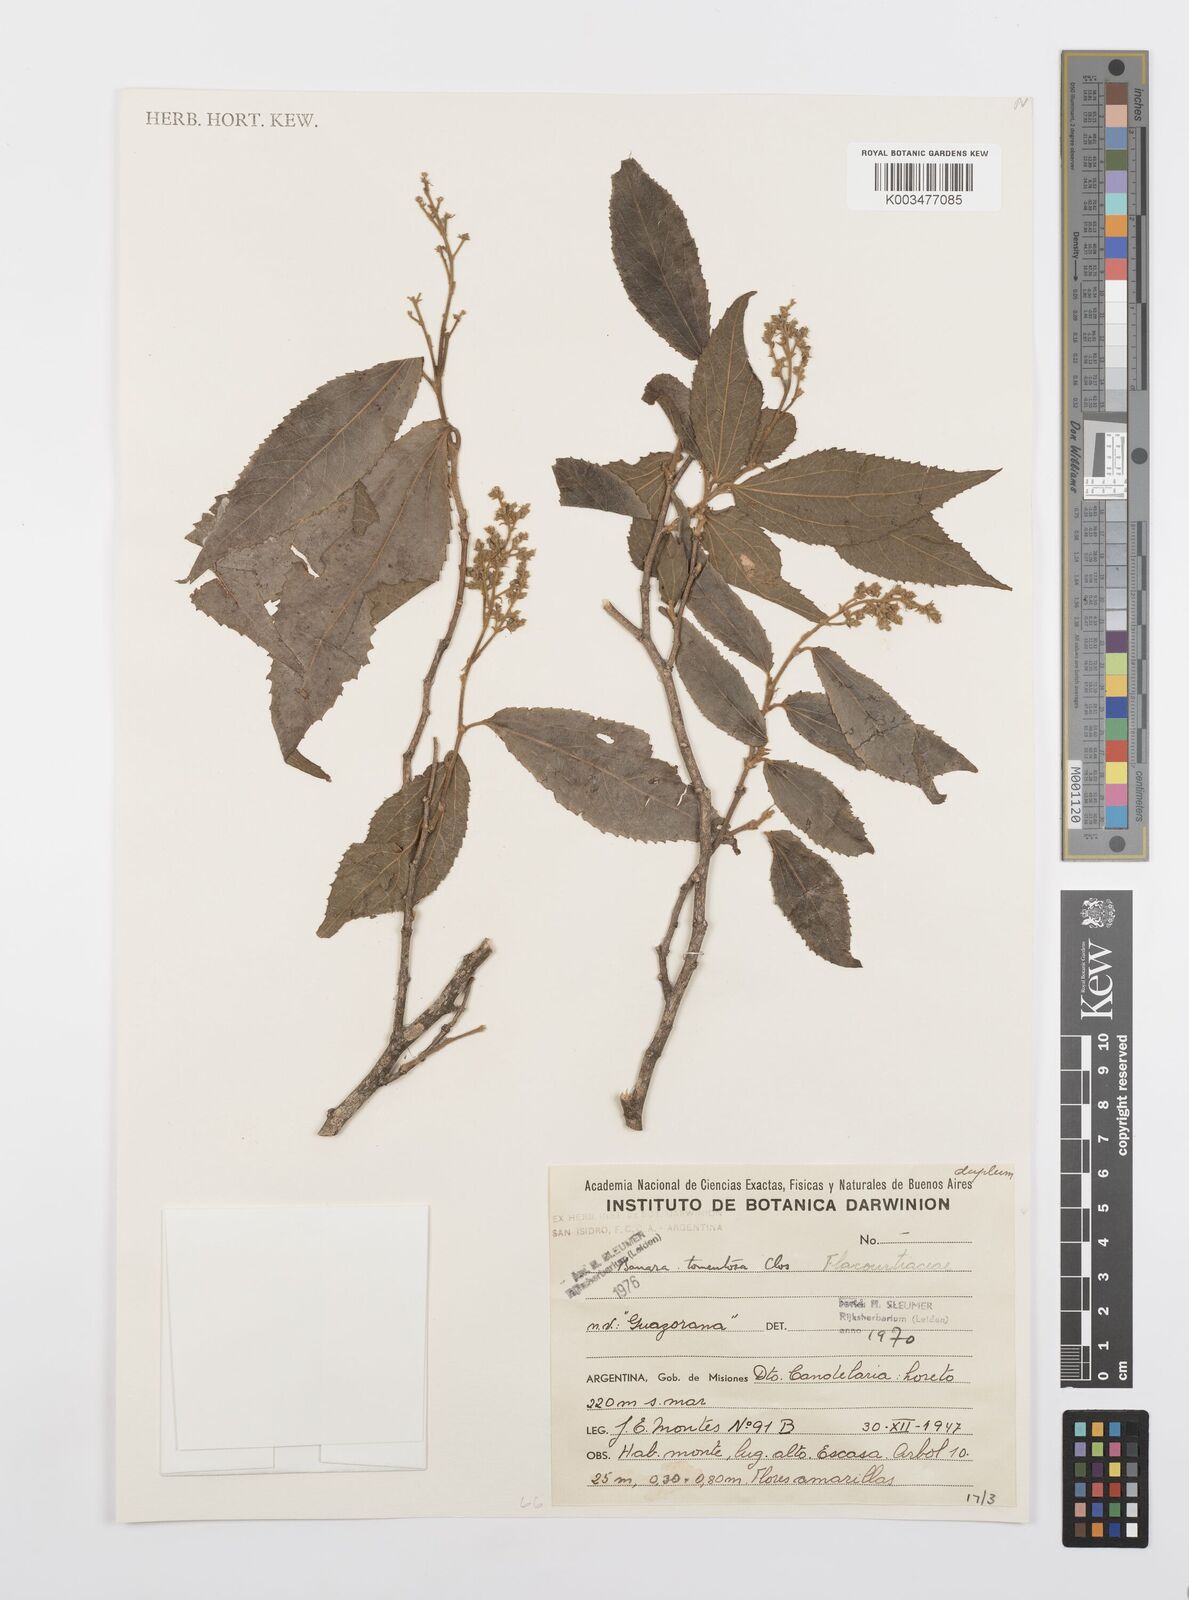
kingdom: Plantae
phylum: Tracheophyta
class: Magnoliopsida
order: Malpighiales
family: Salicaceae
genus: Banara
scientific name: Banara tomentosa
